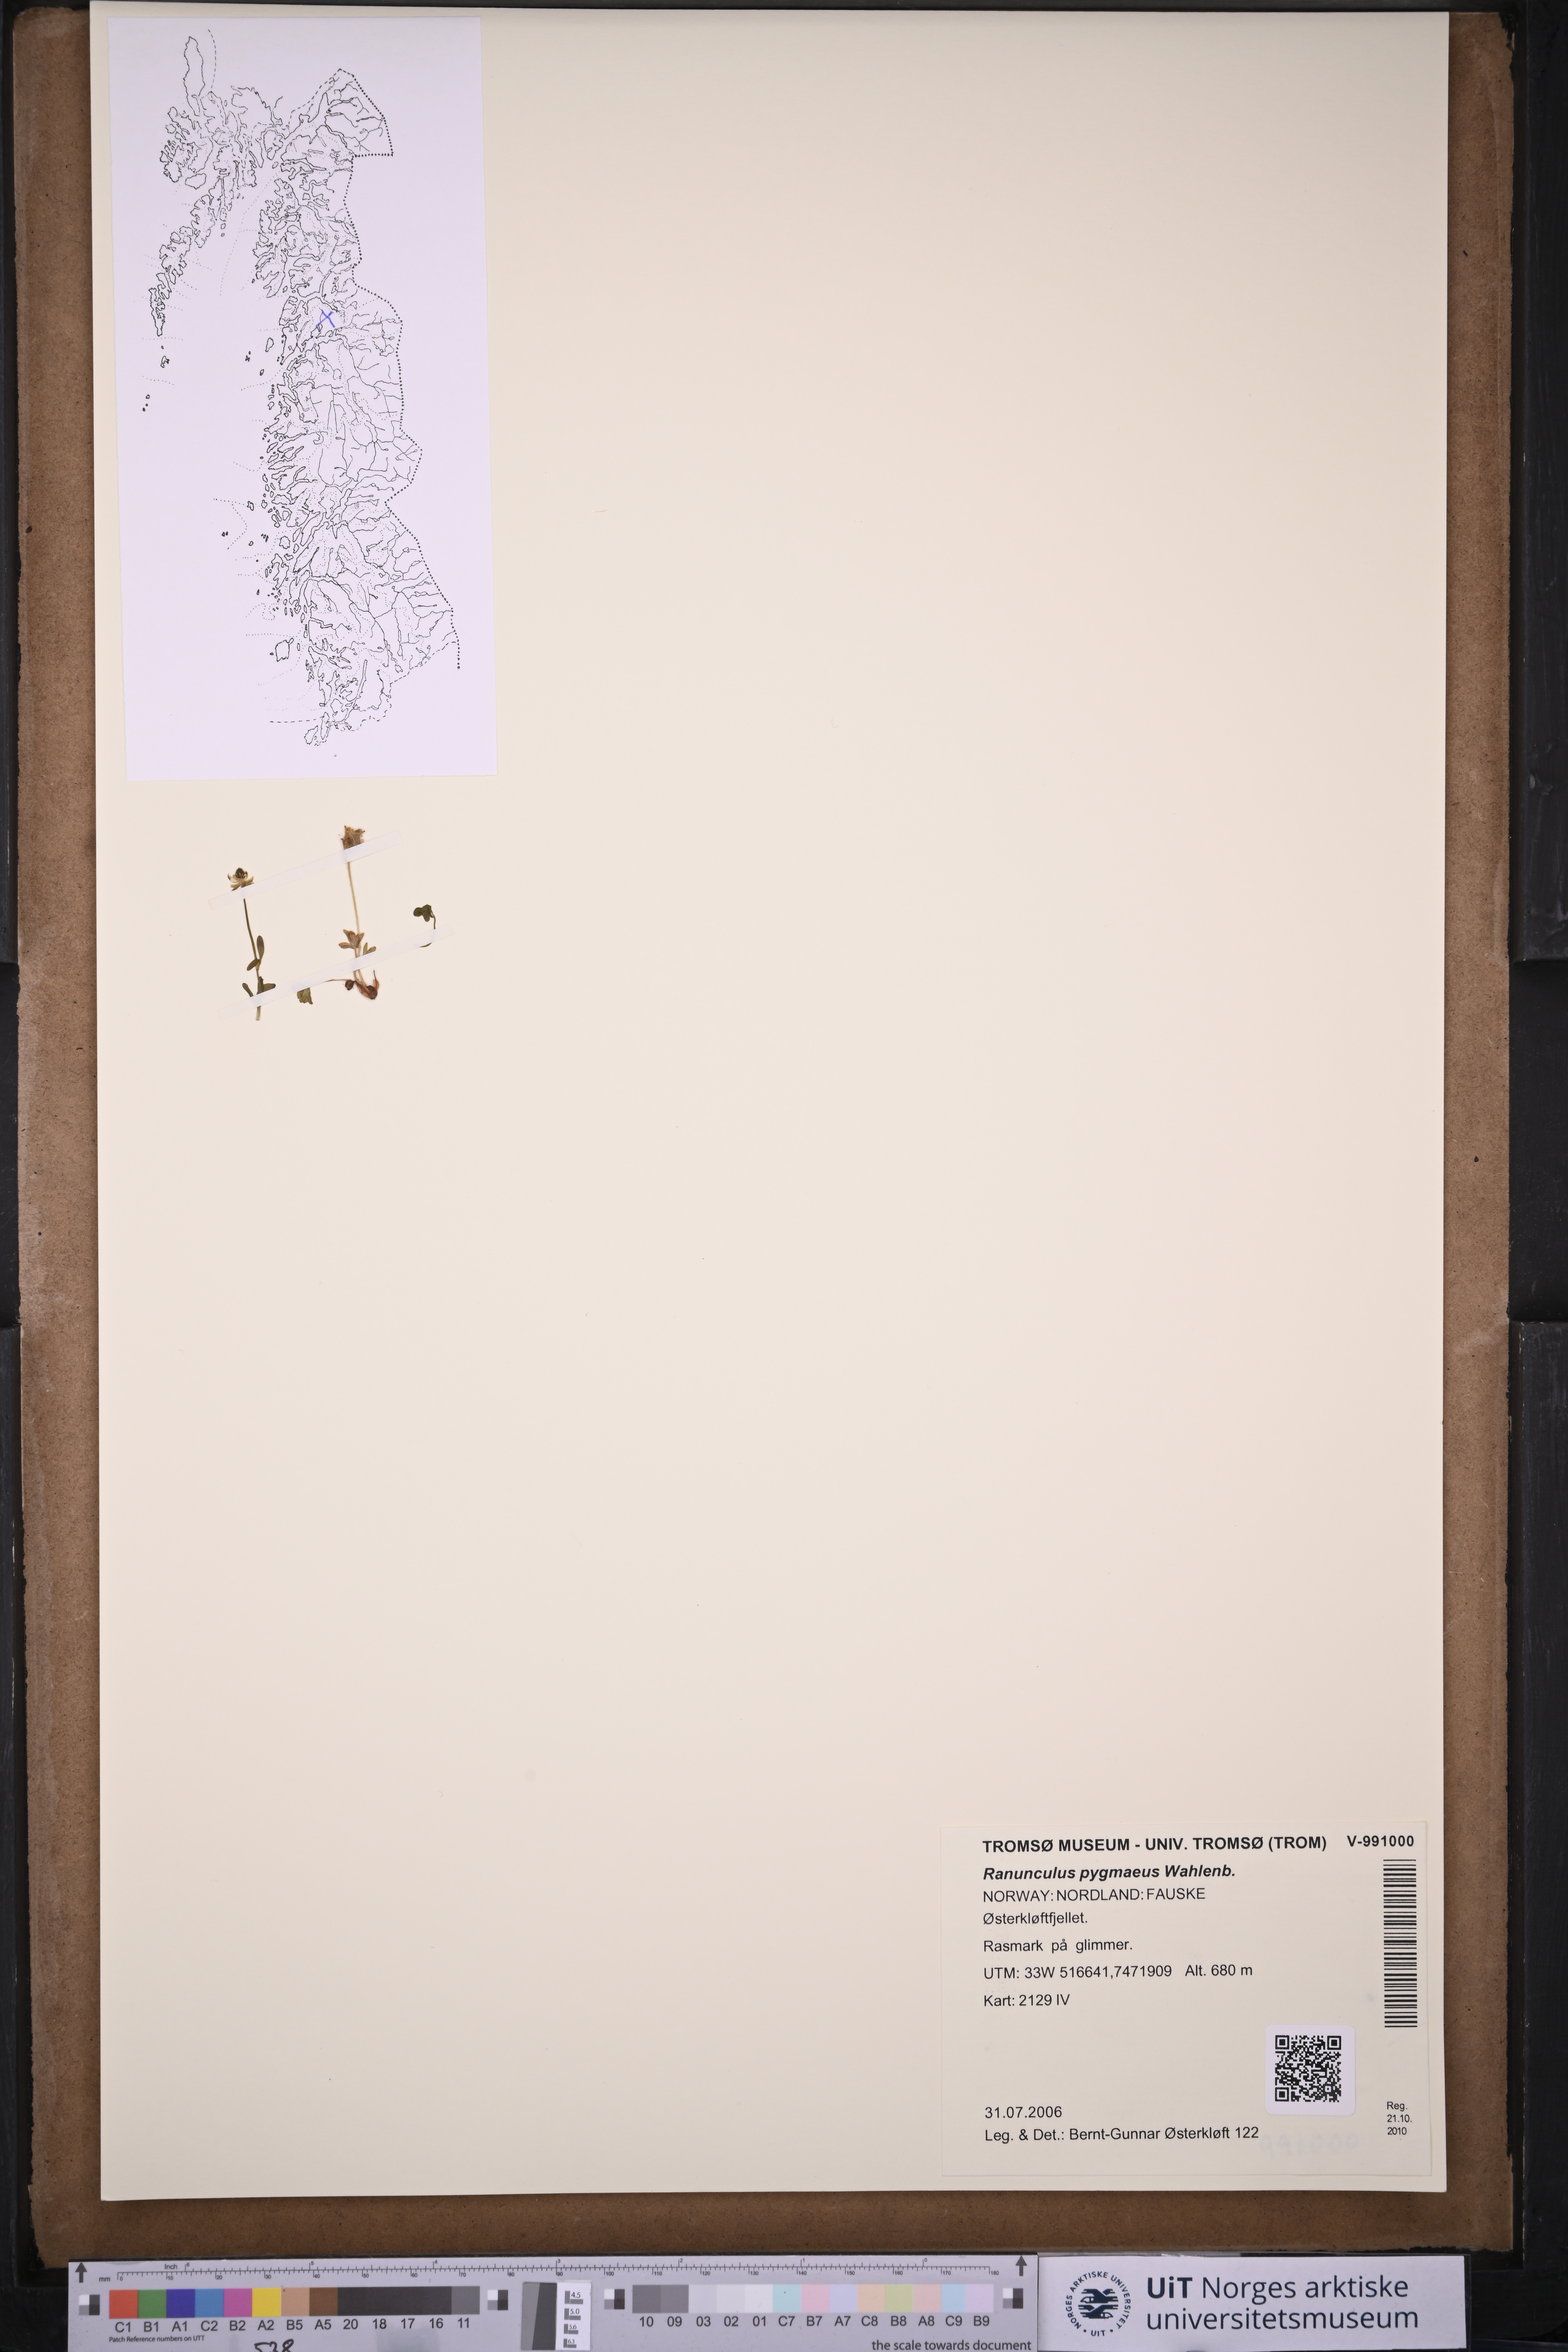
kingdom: Plantae
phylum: Tracheophyta
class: Magnoliopsida
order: Ranunculales
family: Ranunculaceae
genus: Ranunculus
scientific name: Ranunculus pygmaeus
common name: Dwarf buttercup
